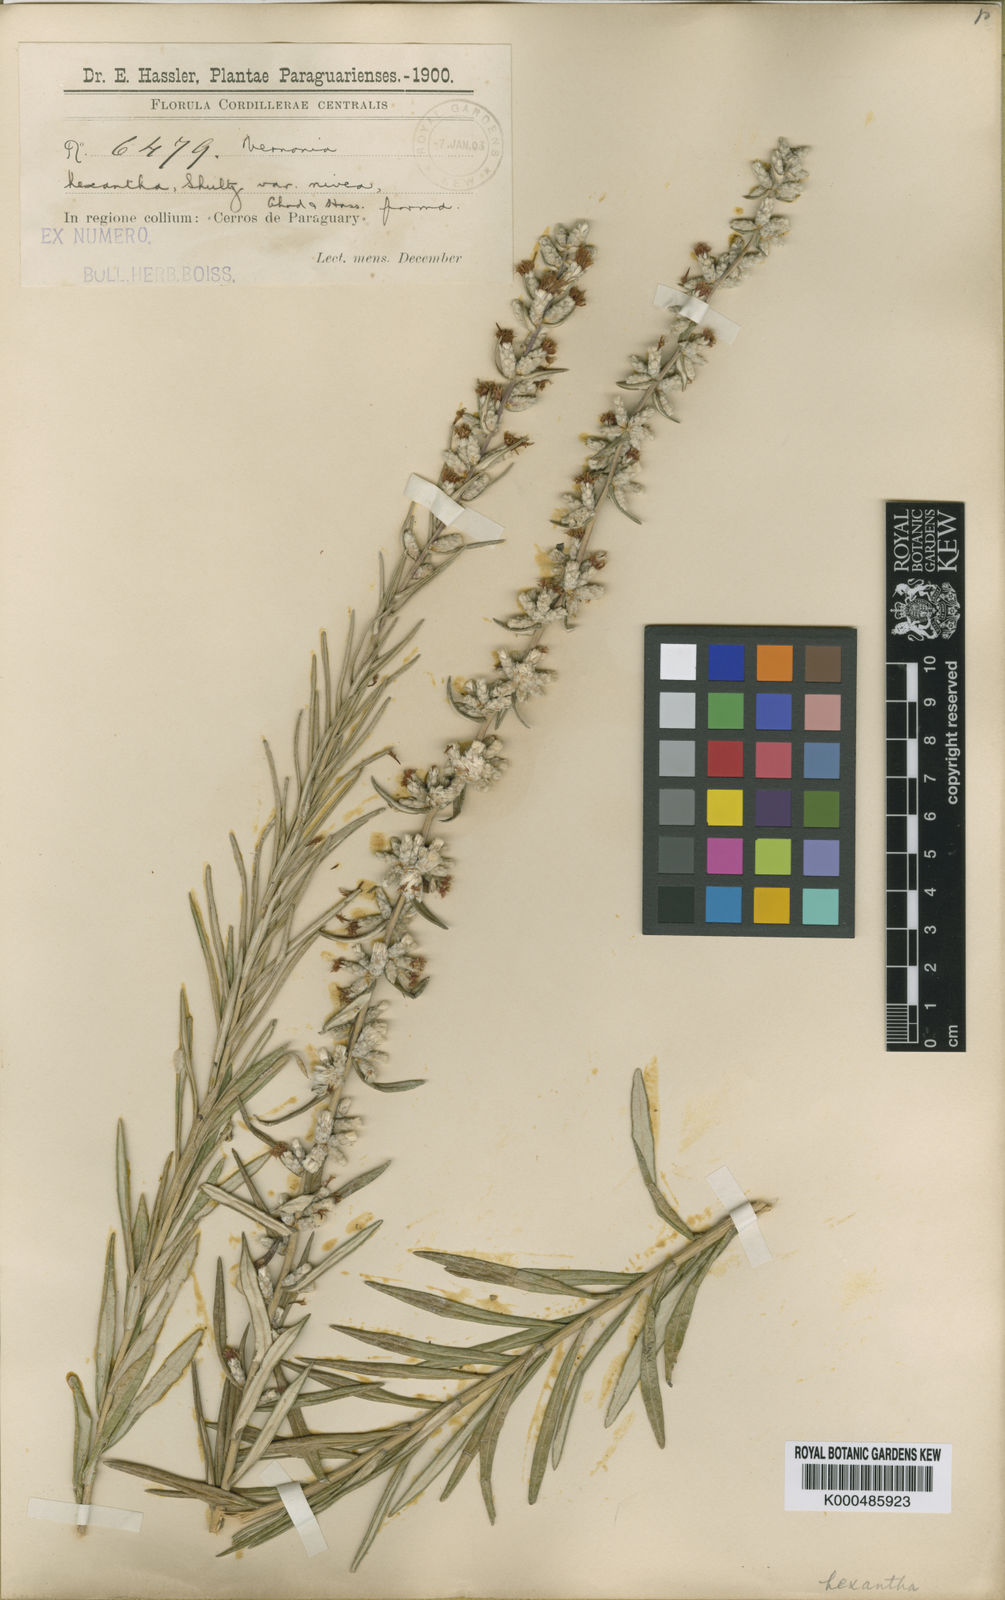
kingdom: Plantae
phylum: Tracheophyta
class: Magnoliopsida
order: Asterales
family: Asteraceae
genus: Stenocephalum
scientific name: Stenocephalum hexanthum
